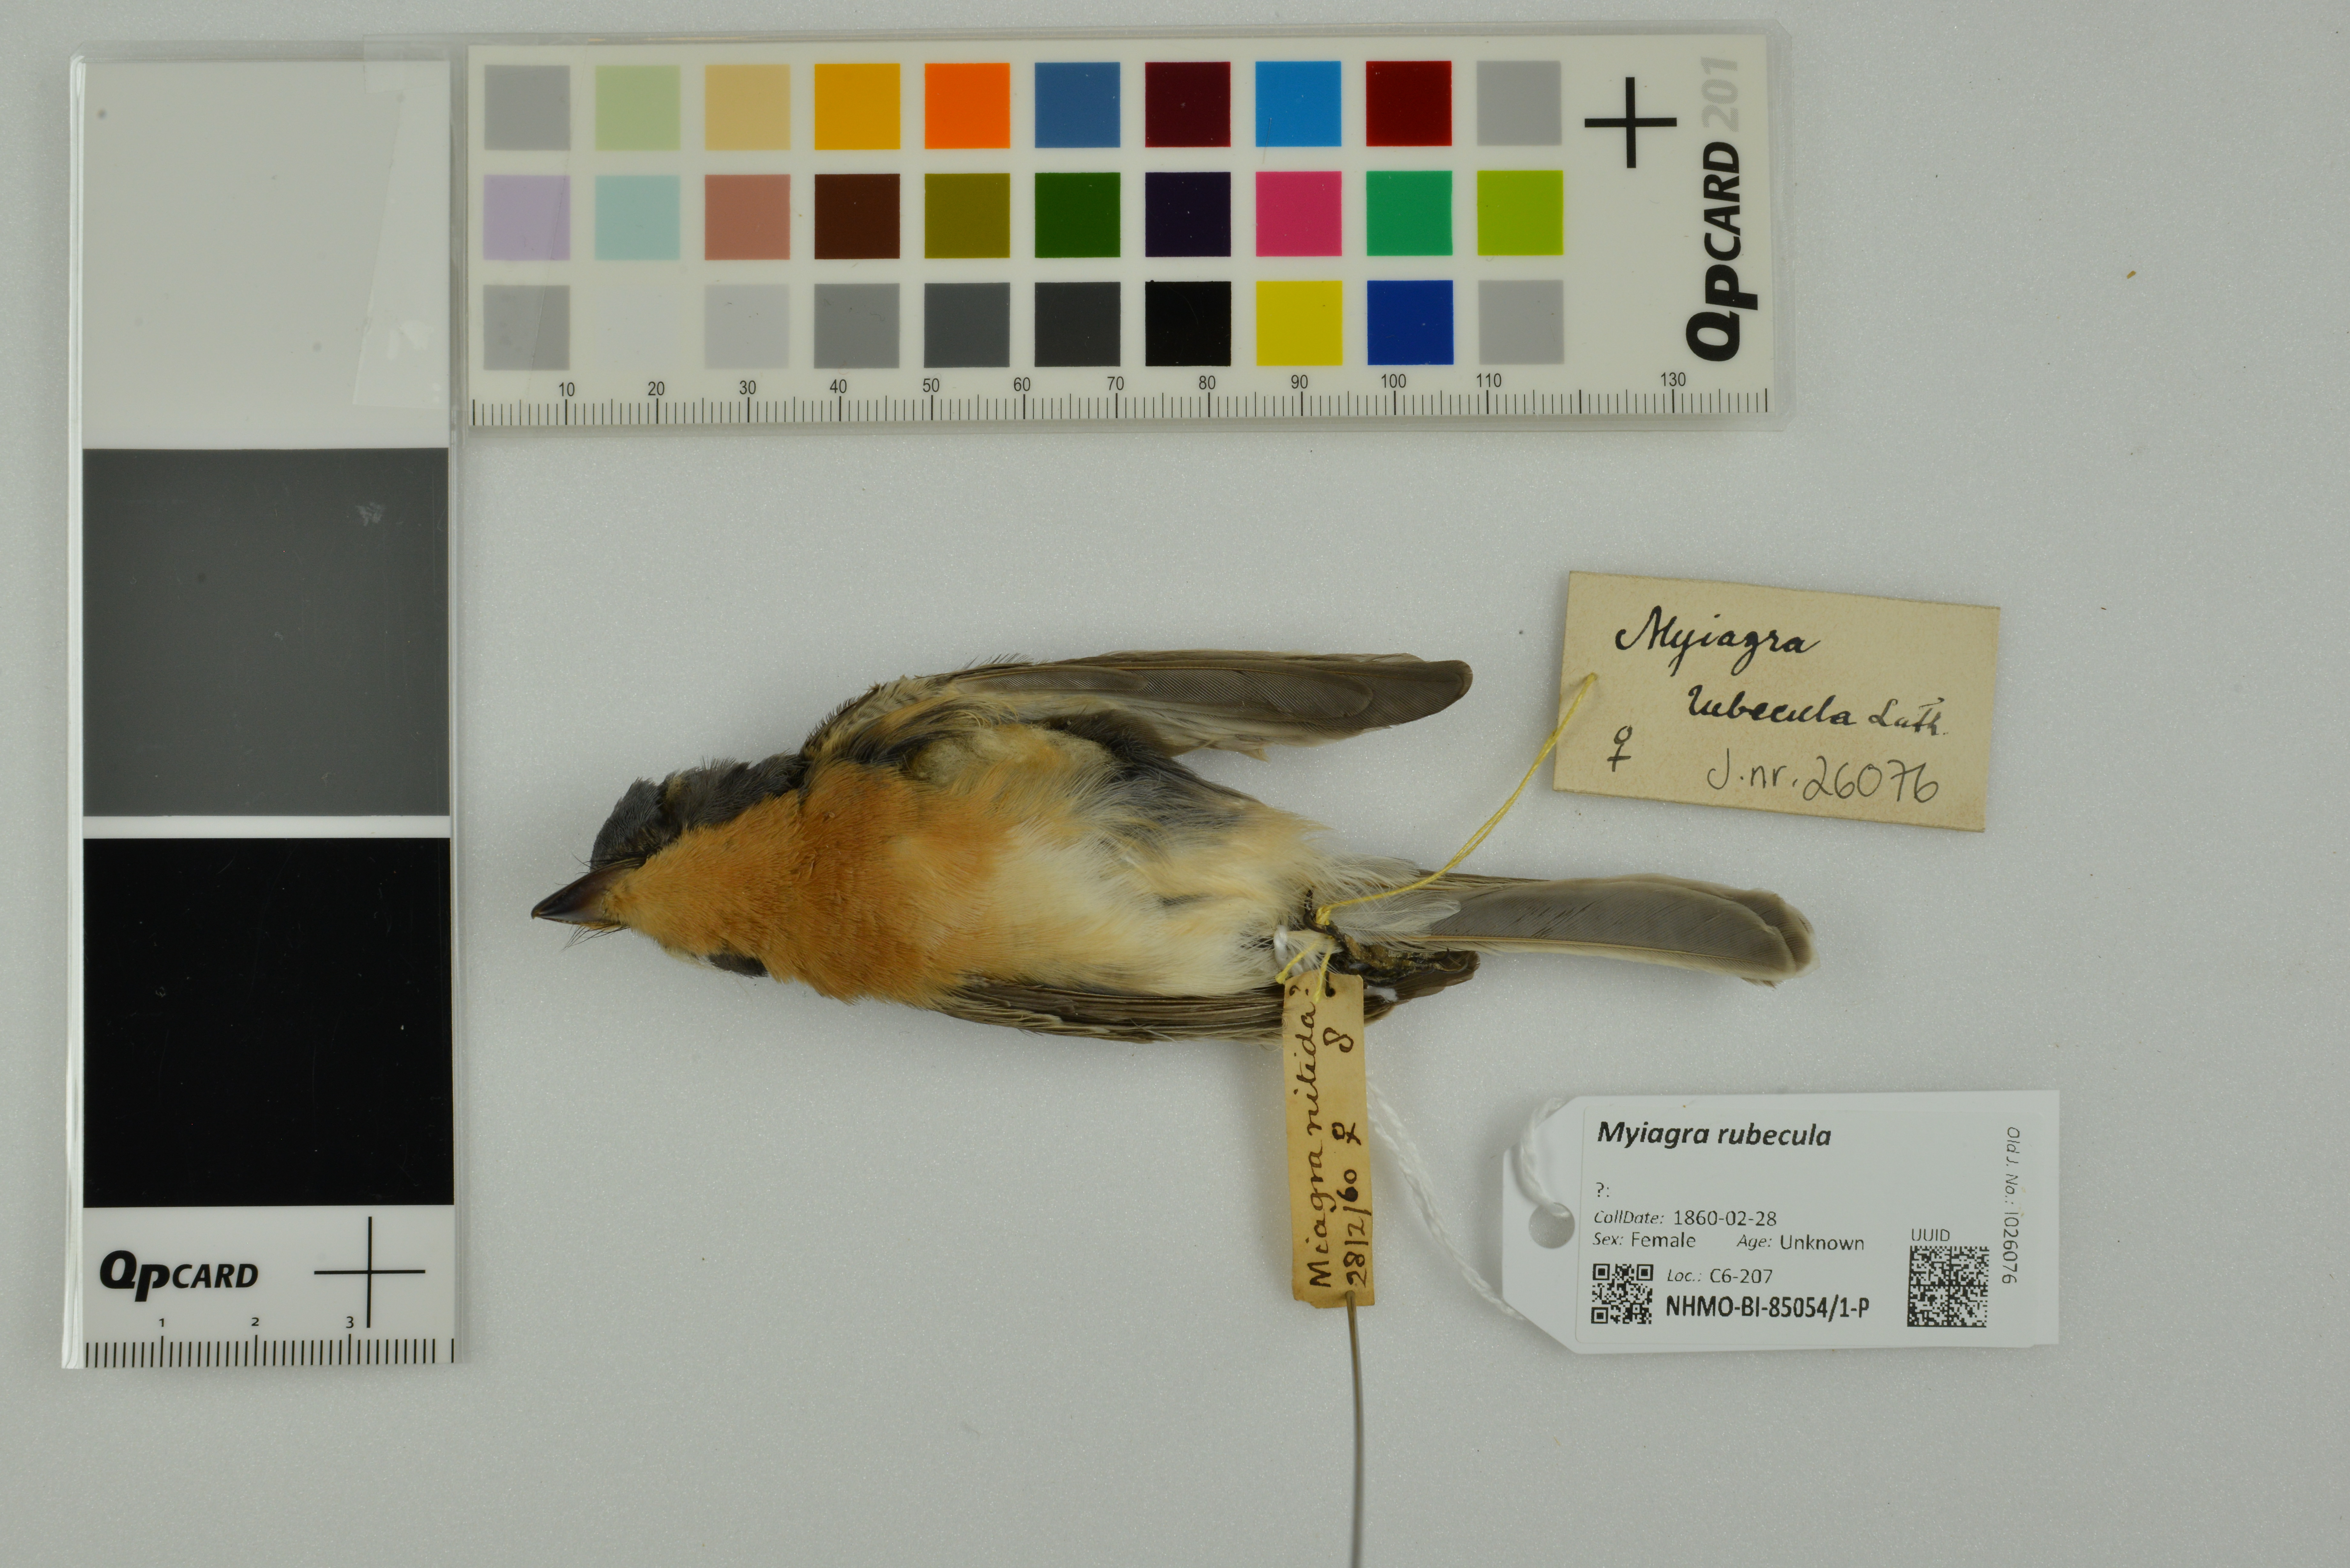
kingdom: Animalia
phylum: Chordata
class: Aves
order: Passeriformes
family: Monarchidae
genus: Myiagra
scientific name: Myiagra rubecula
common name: Leaden flycatcher
